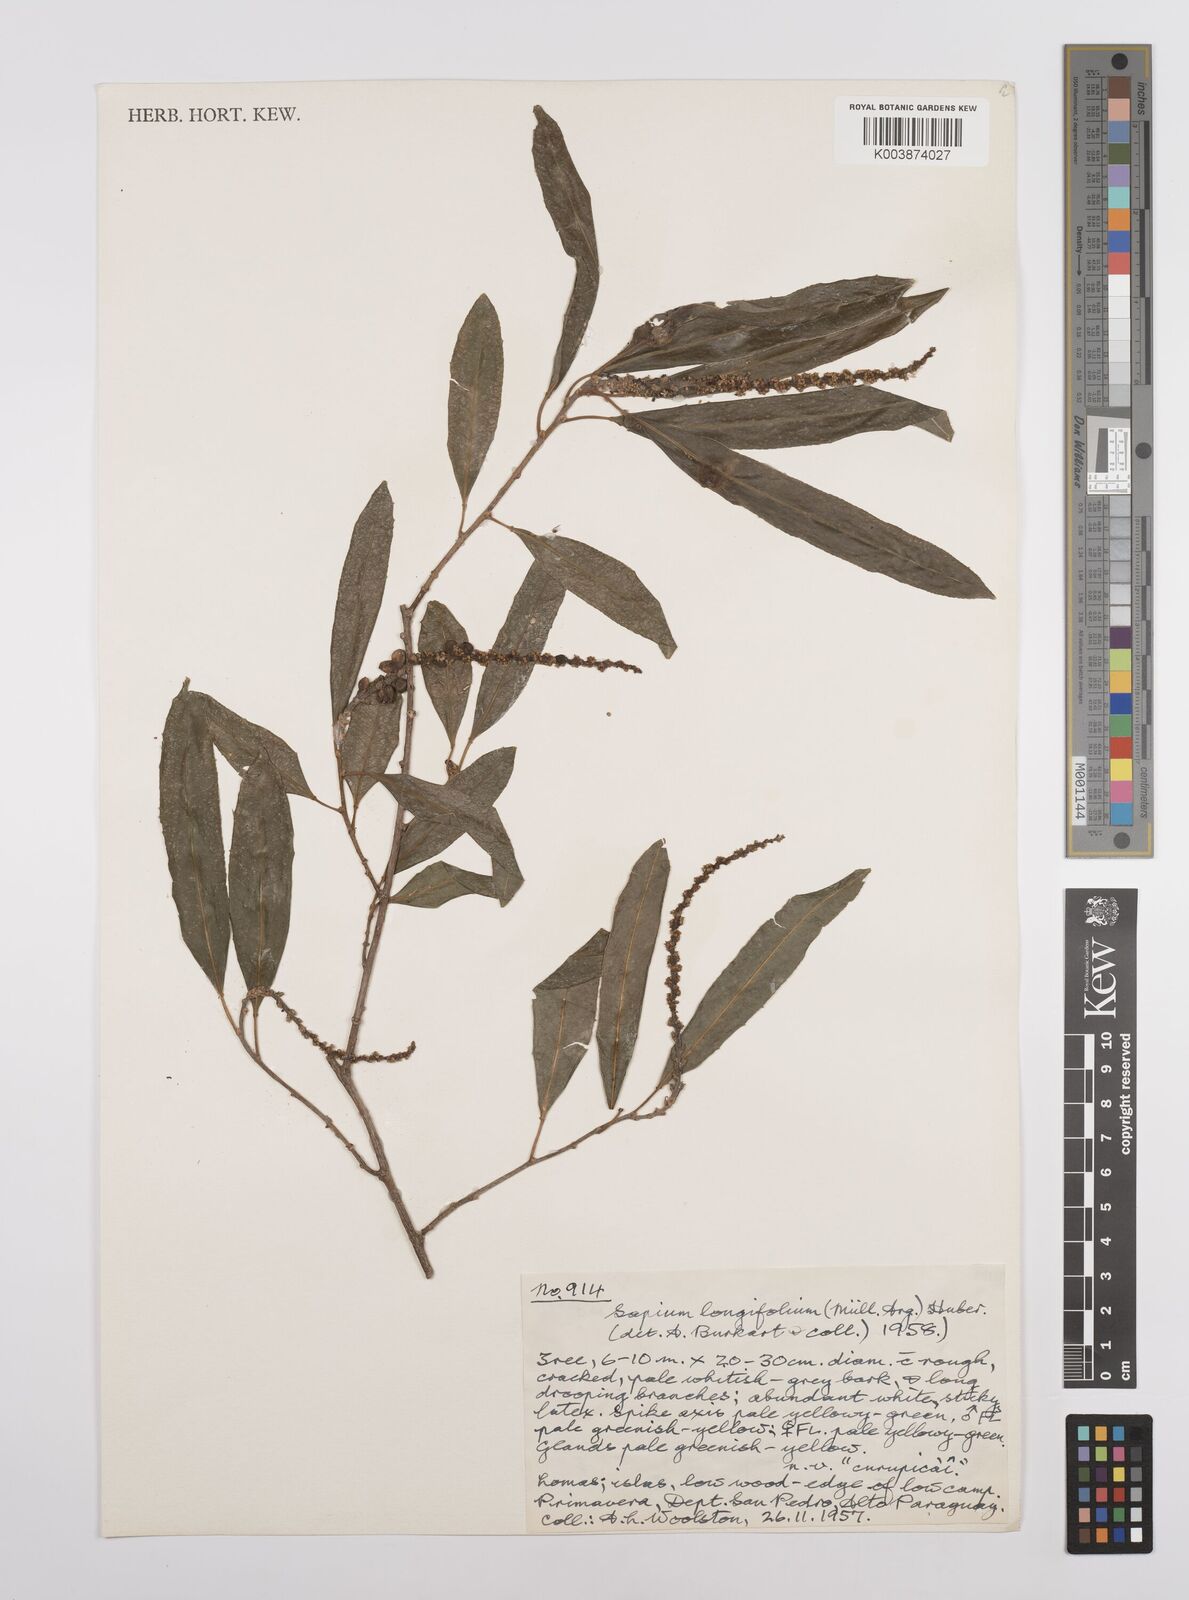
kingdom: Plantae
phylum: Tracheophyta
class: Magnoliopsida
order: Malpighiales
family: Euphorbiaceae
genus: Sapium
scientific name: Sapium haematospermum
